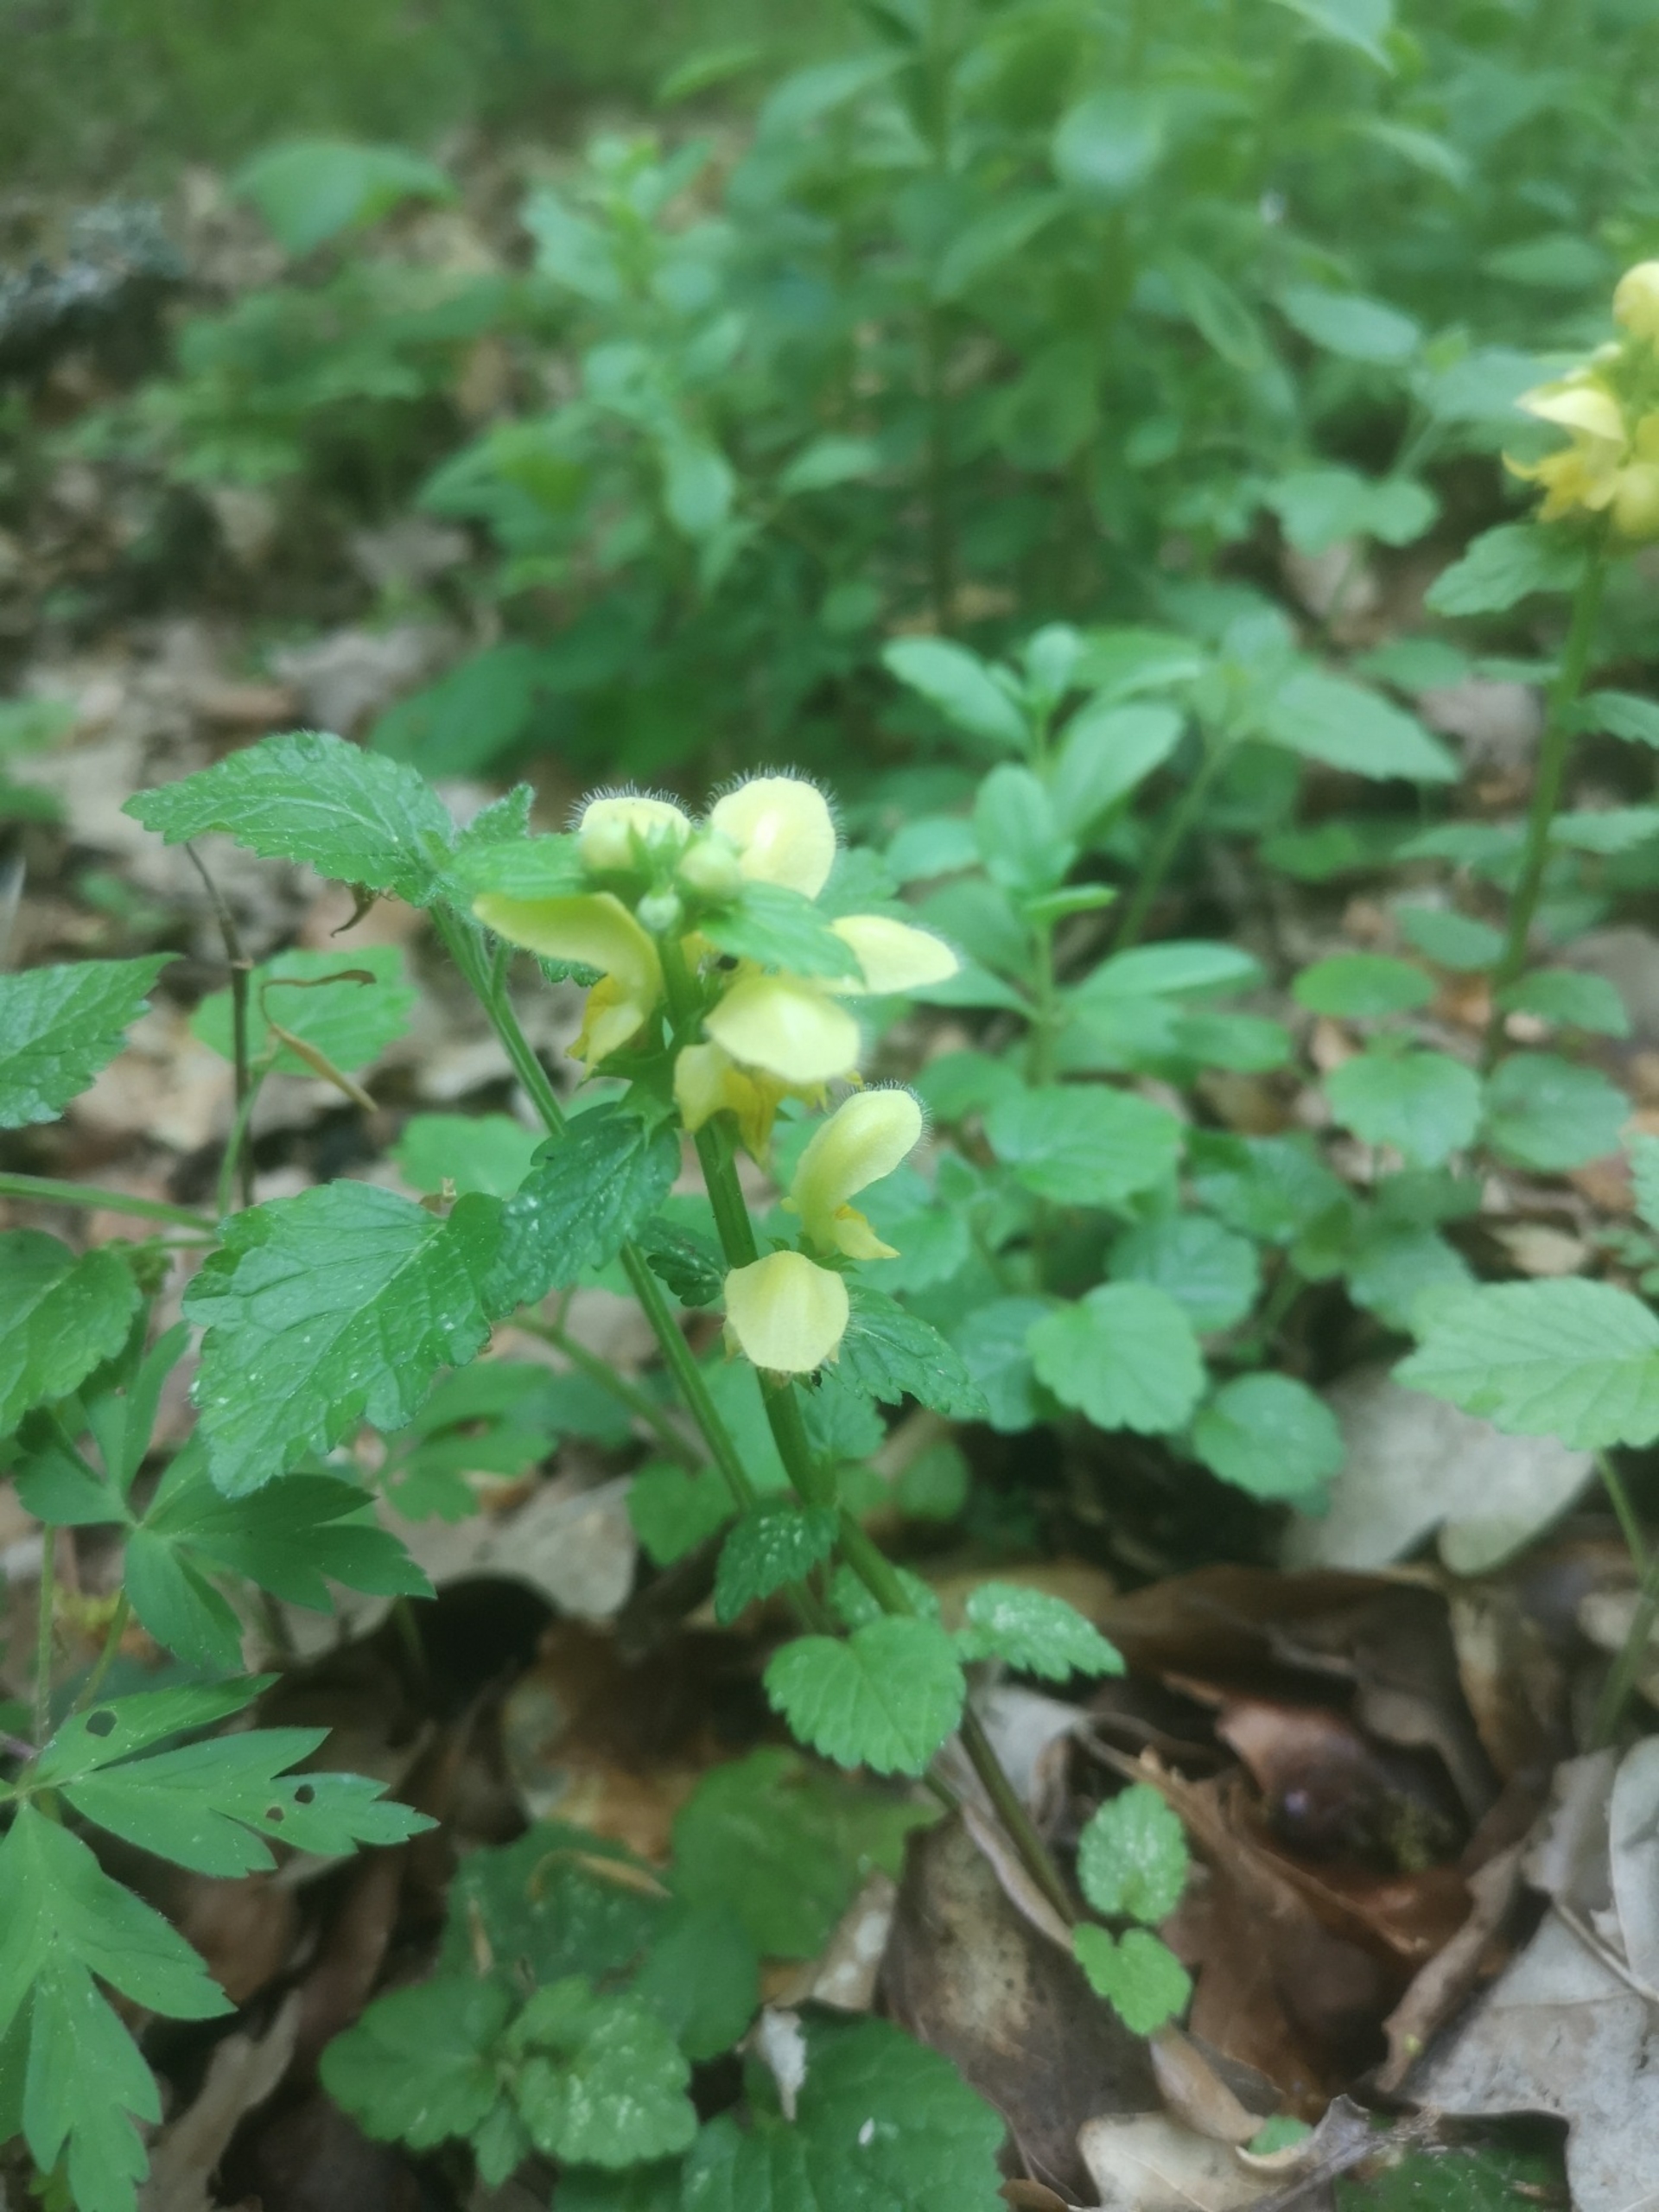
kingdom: Plantae
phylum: Tracheophyta
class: Magnoliopsida
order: Lamiales
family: Lamiaceae
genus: Lamium
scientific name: Lamium galeobdolon
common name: Guldnælde
